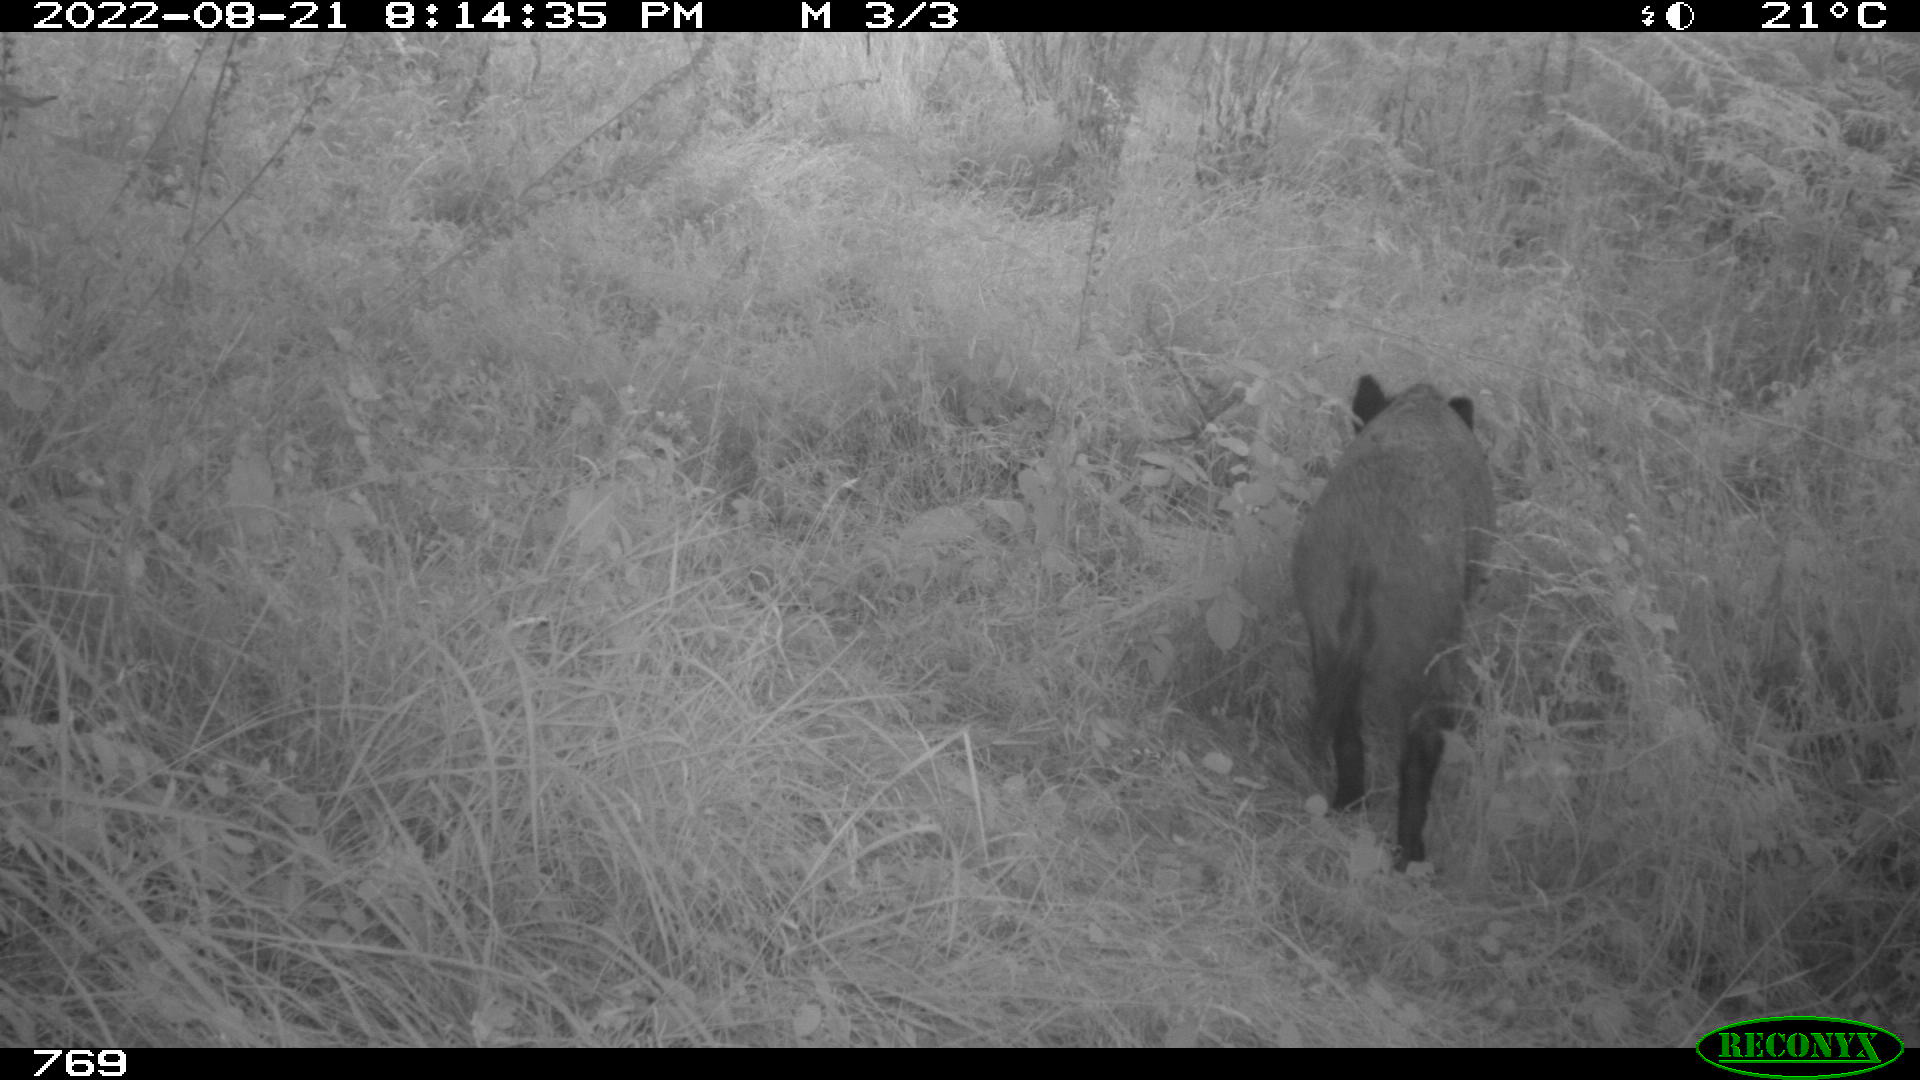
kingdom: Animalia
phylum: Chordata
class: Mammalia
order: Artiodactyla
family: Suidae
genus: Sus
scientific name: Sus scrofa
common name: Wild boar
